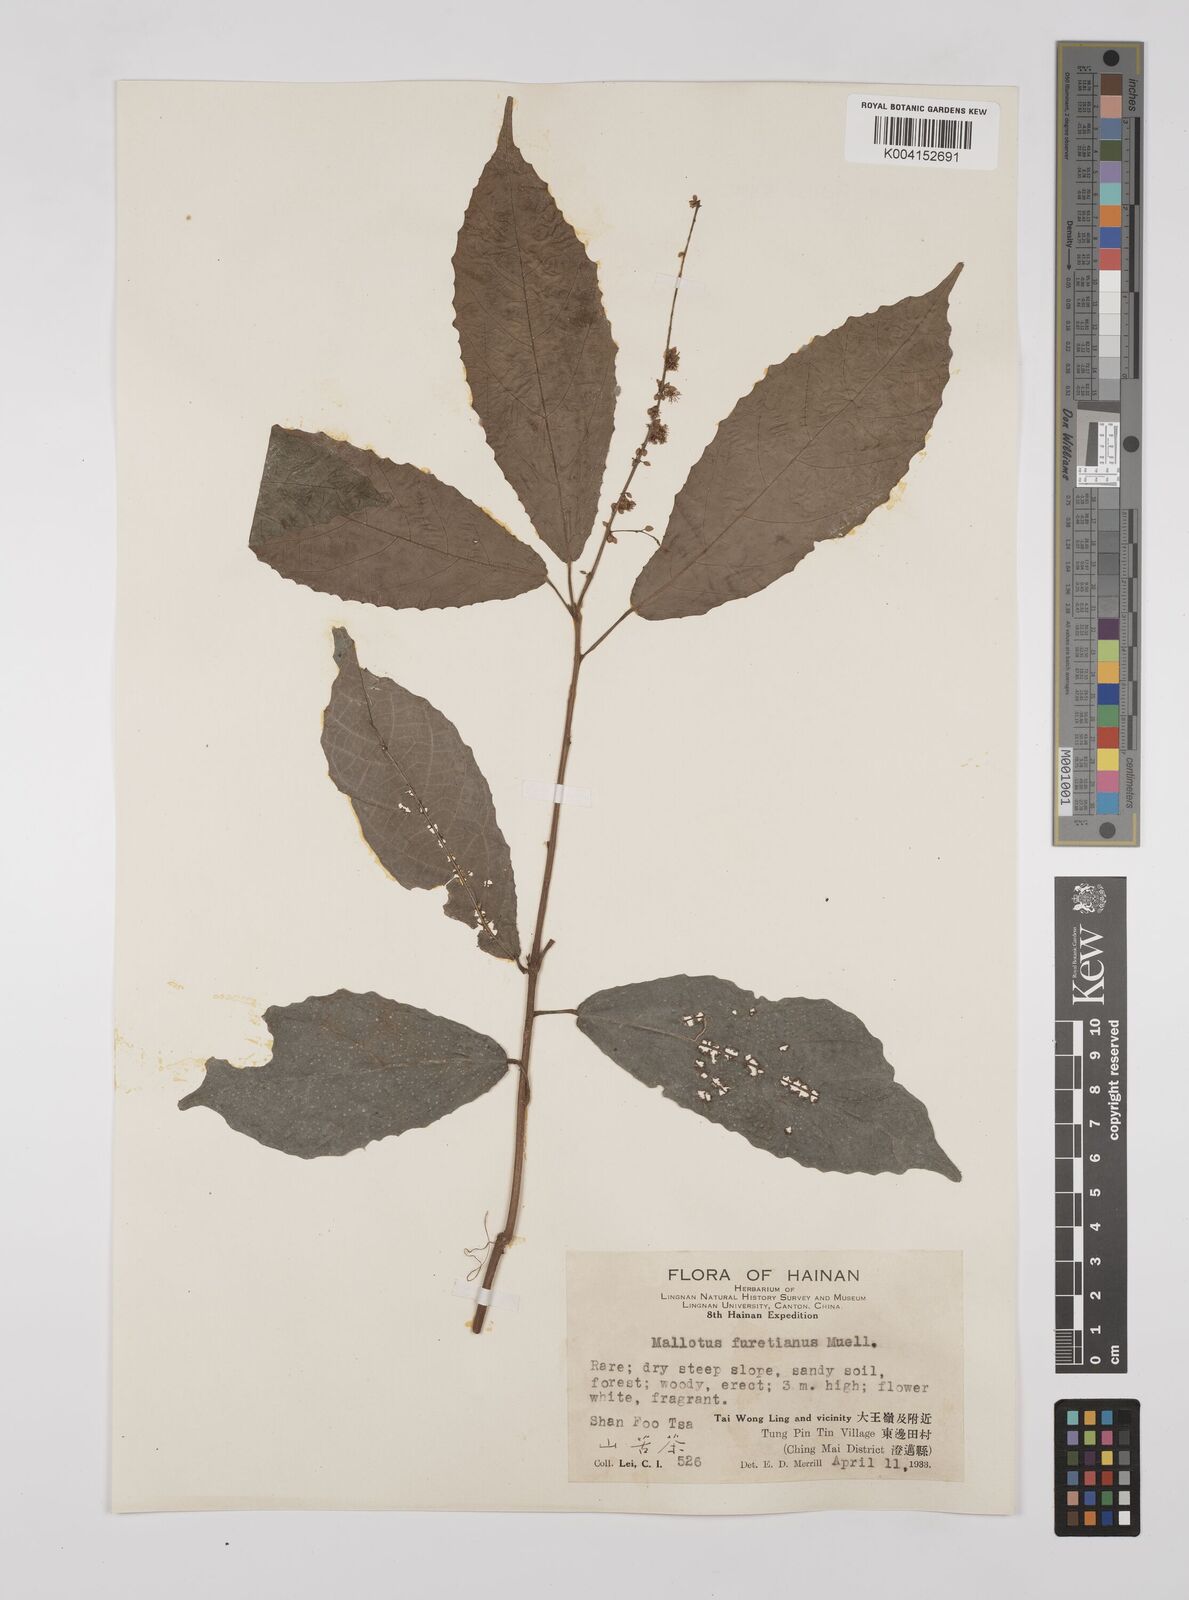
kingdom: Plantae
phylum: Tracheophyta
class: Magnoliopsida
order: Malpighiales
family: Euphorbiaceae
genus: Mallotus
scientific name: Mallotus peltatus
